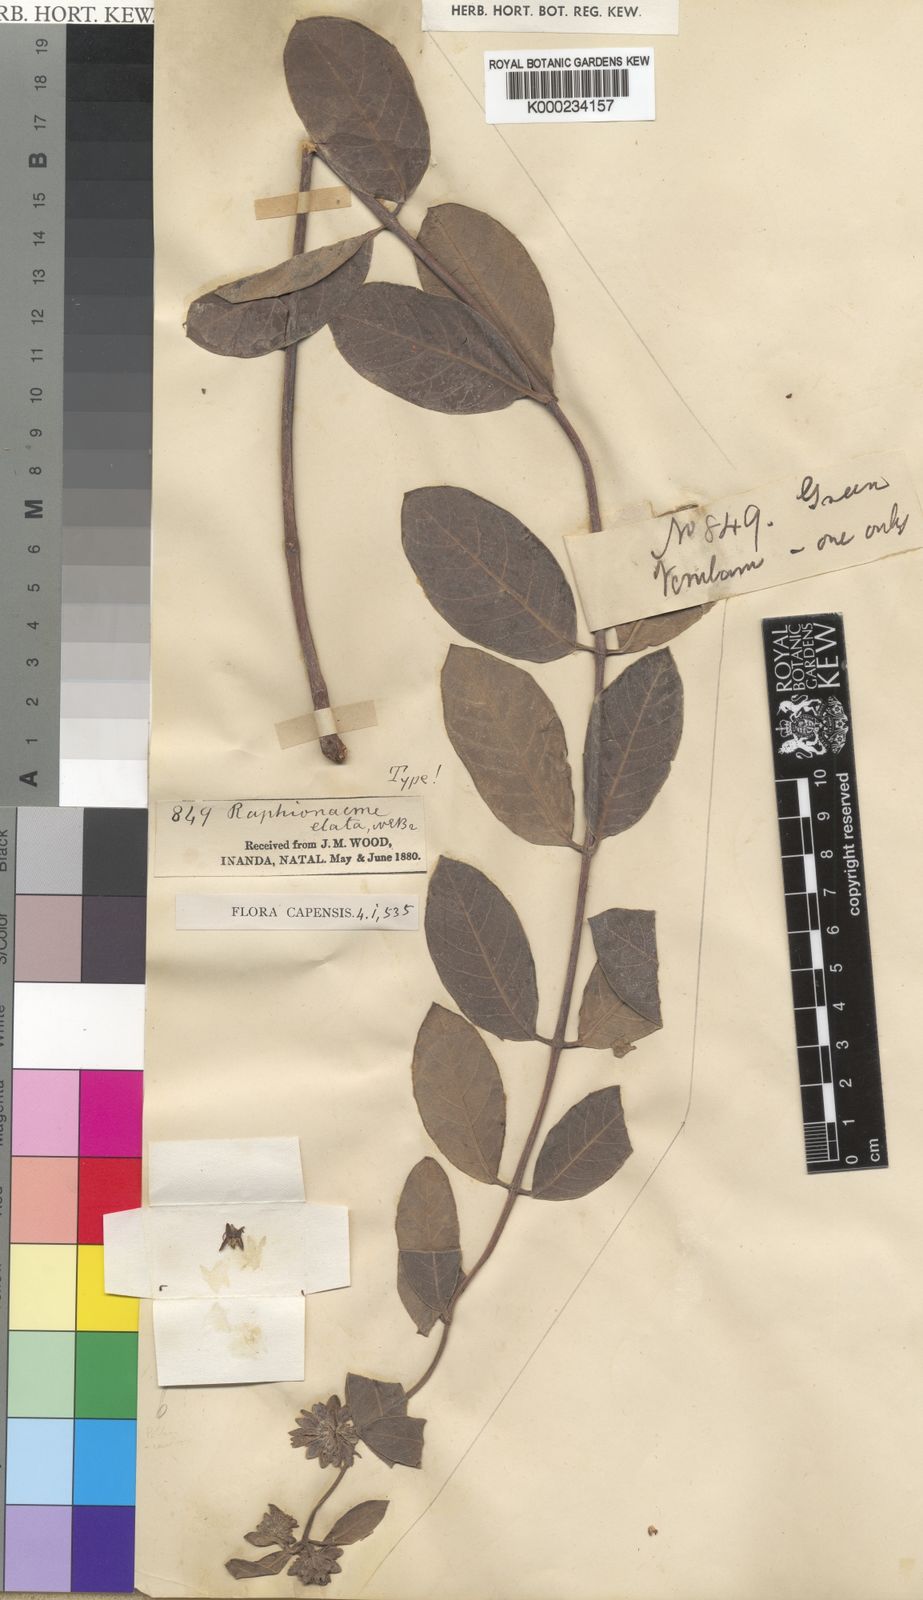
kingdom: Plantae
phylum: Tracheophyta
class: Magnoliopsida
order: Gentianales
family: Apocynaceae
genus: Raphionacme
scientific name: Raphionacme galpinii
